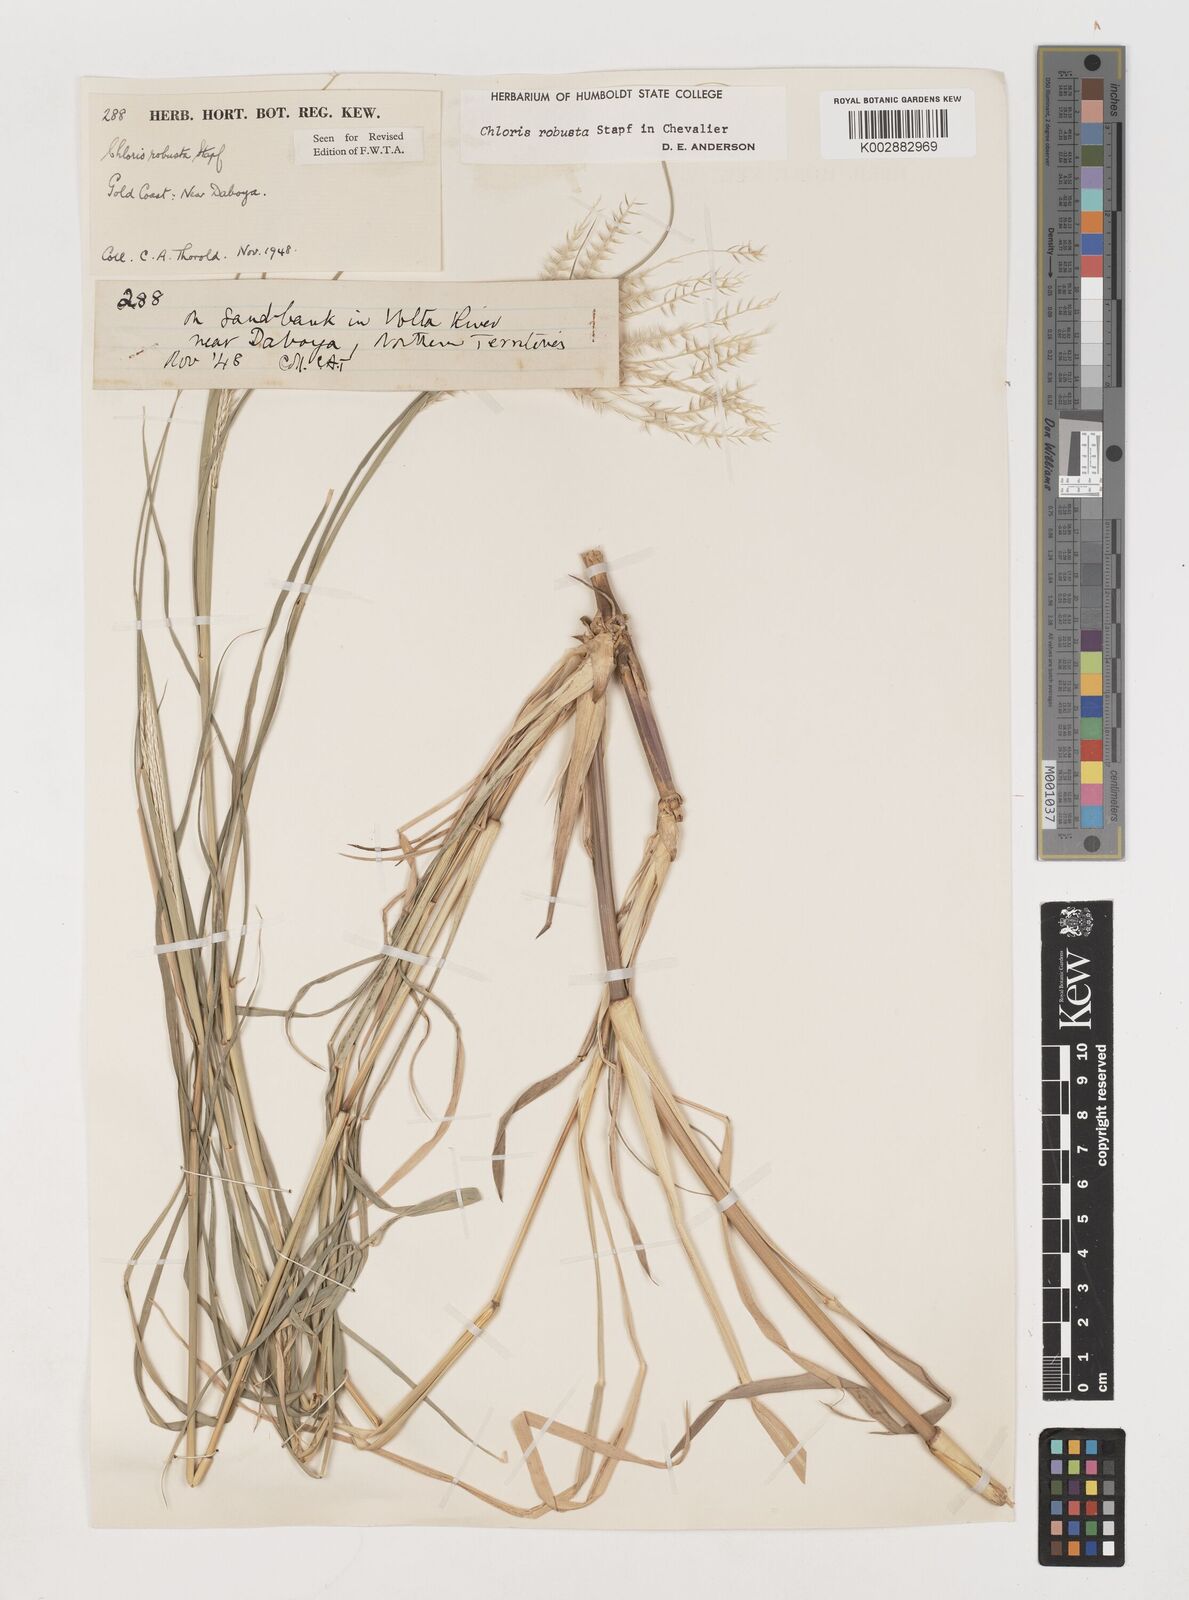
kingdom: Plantae
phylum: Tracheophyta
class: Liliopsida
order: Poales
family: Poaceae
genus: Chloris
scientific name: Chloris robusta
